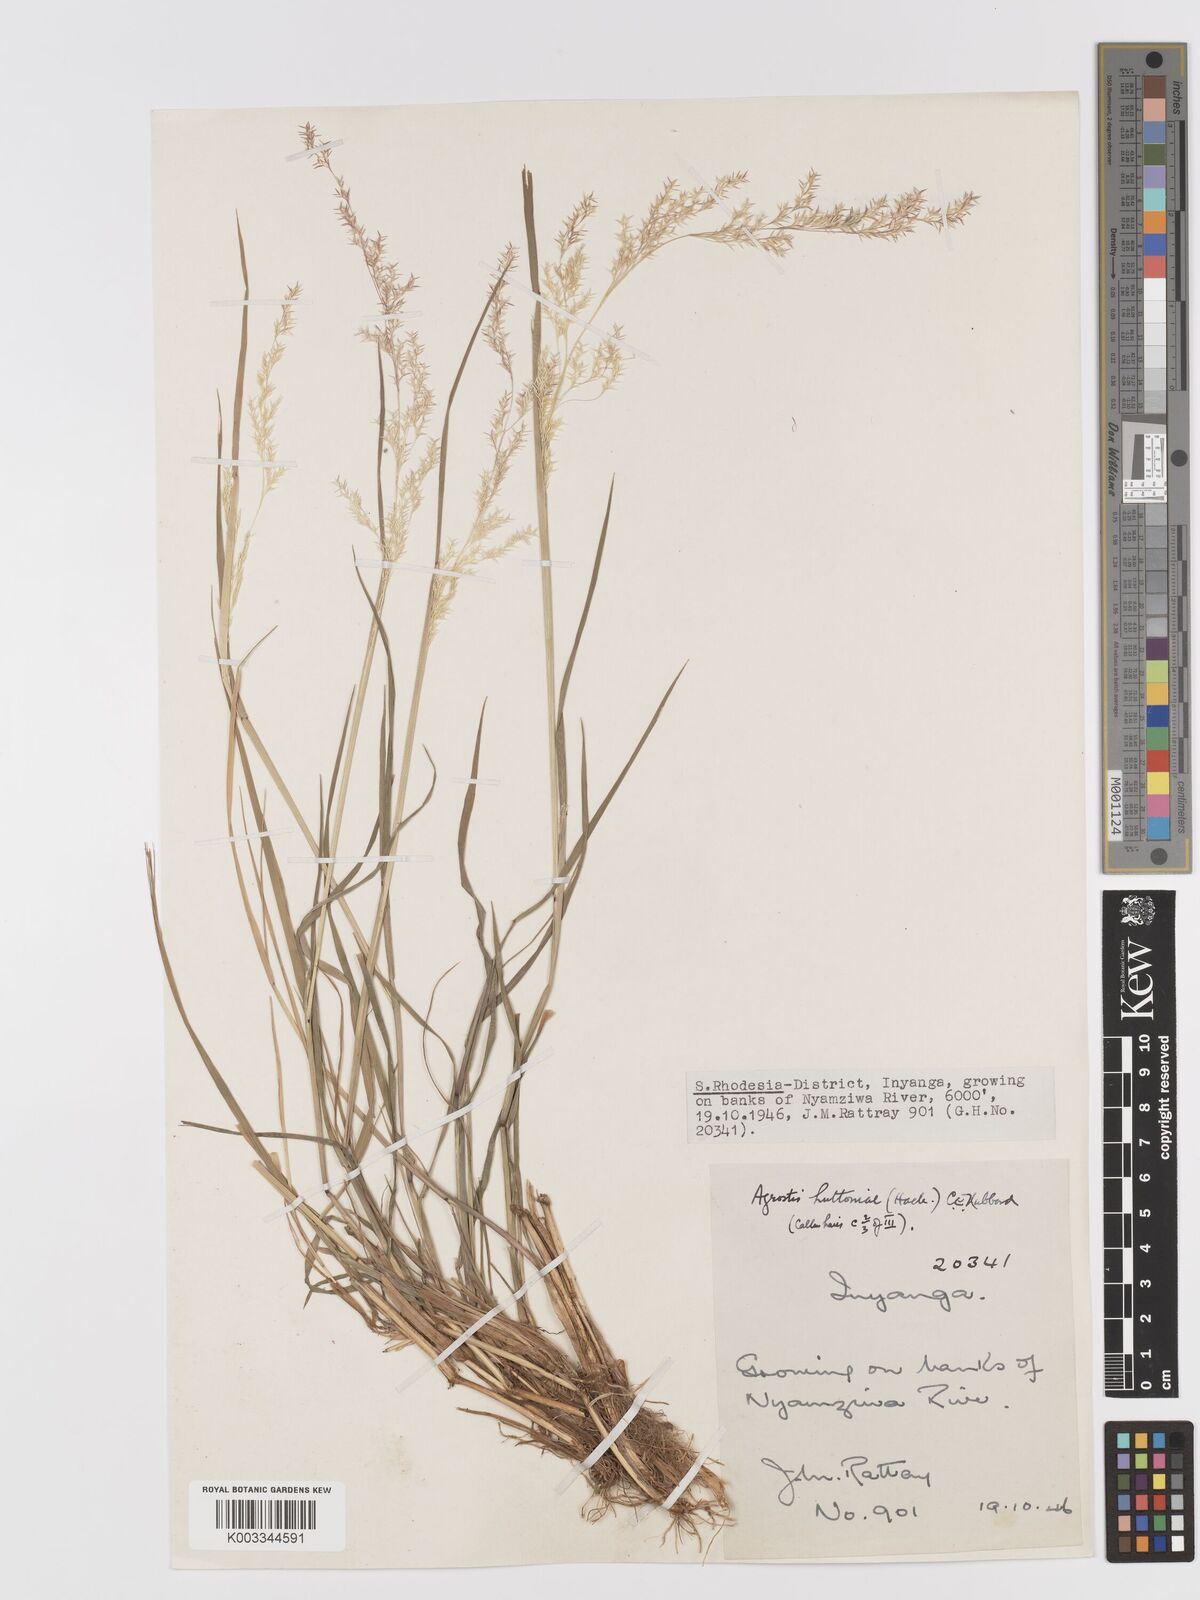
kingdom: Plantae
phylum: Tracheophyta
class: Liliopsida
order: Poales
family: Poaceae
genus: Lachnagrostis
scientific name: Lachnagrostis lachnantha
